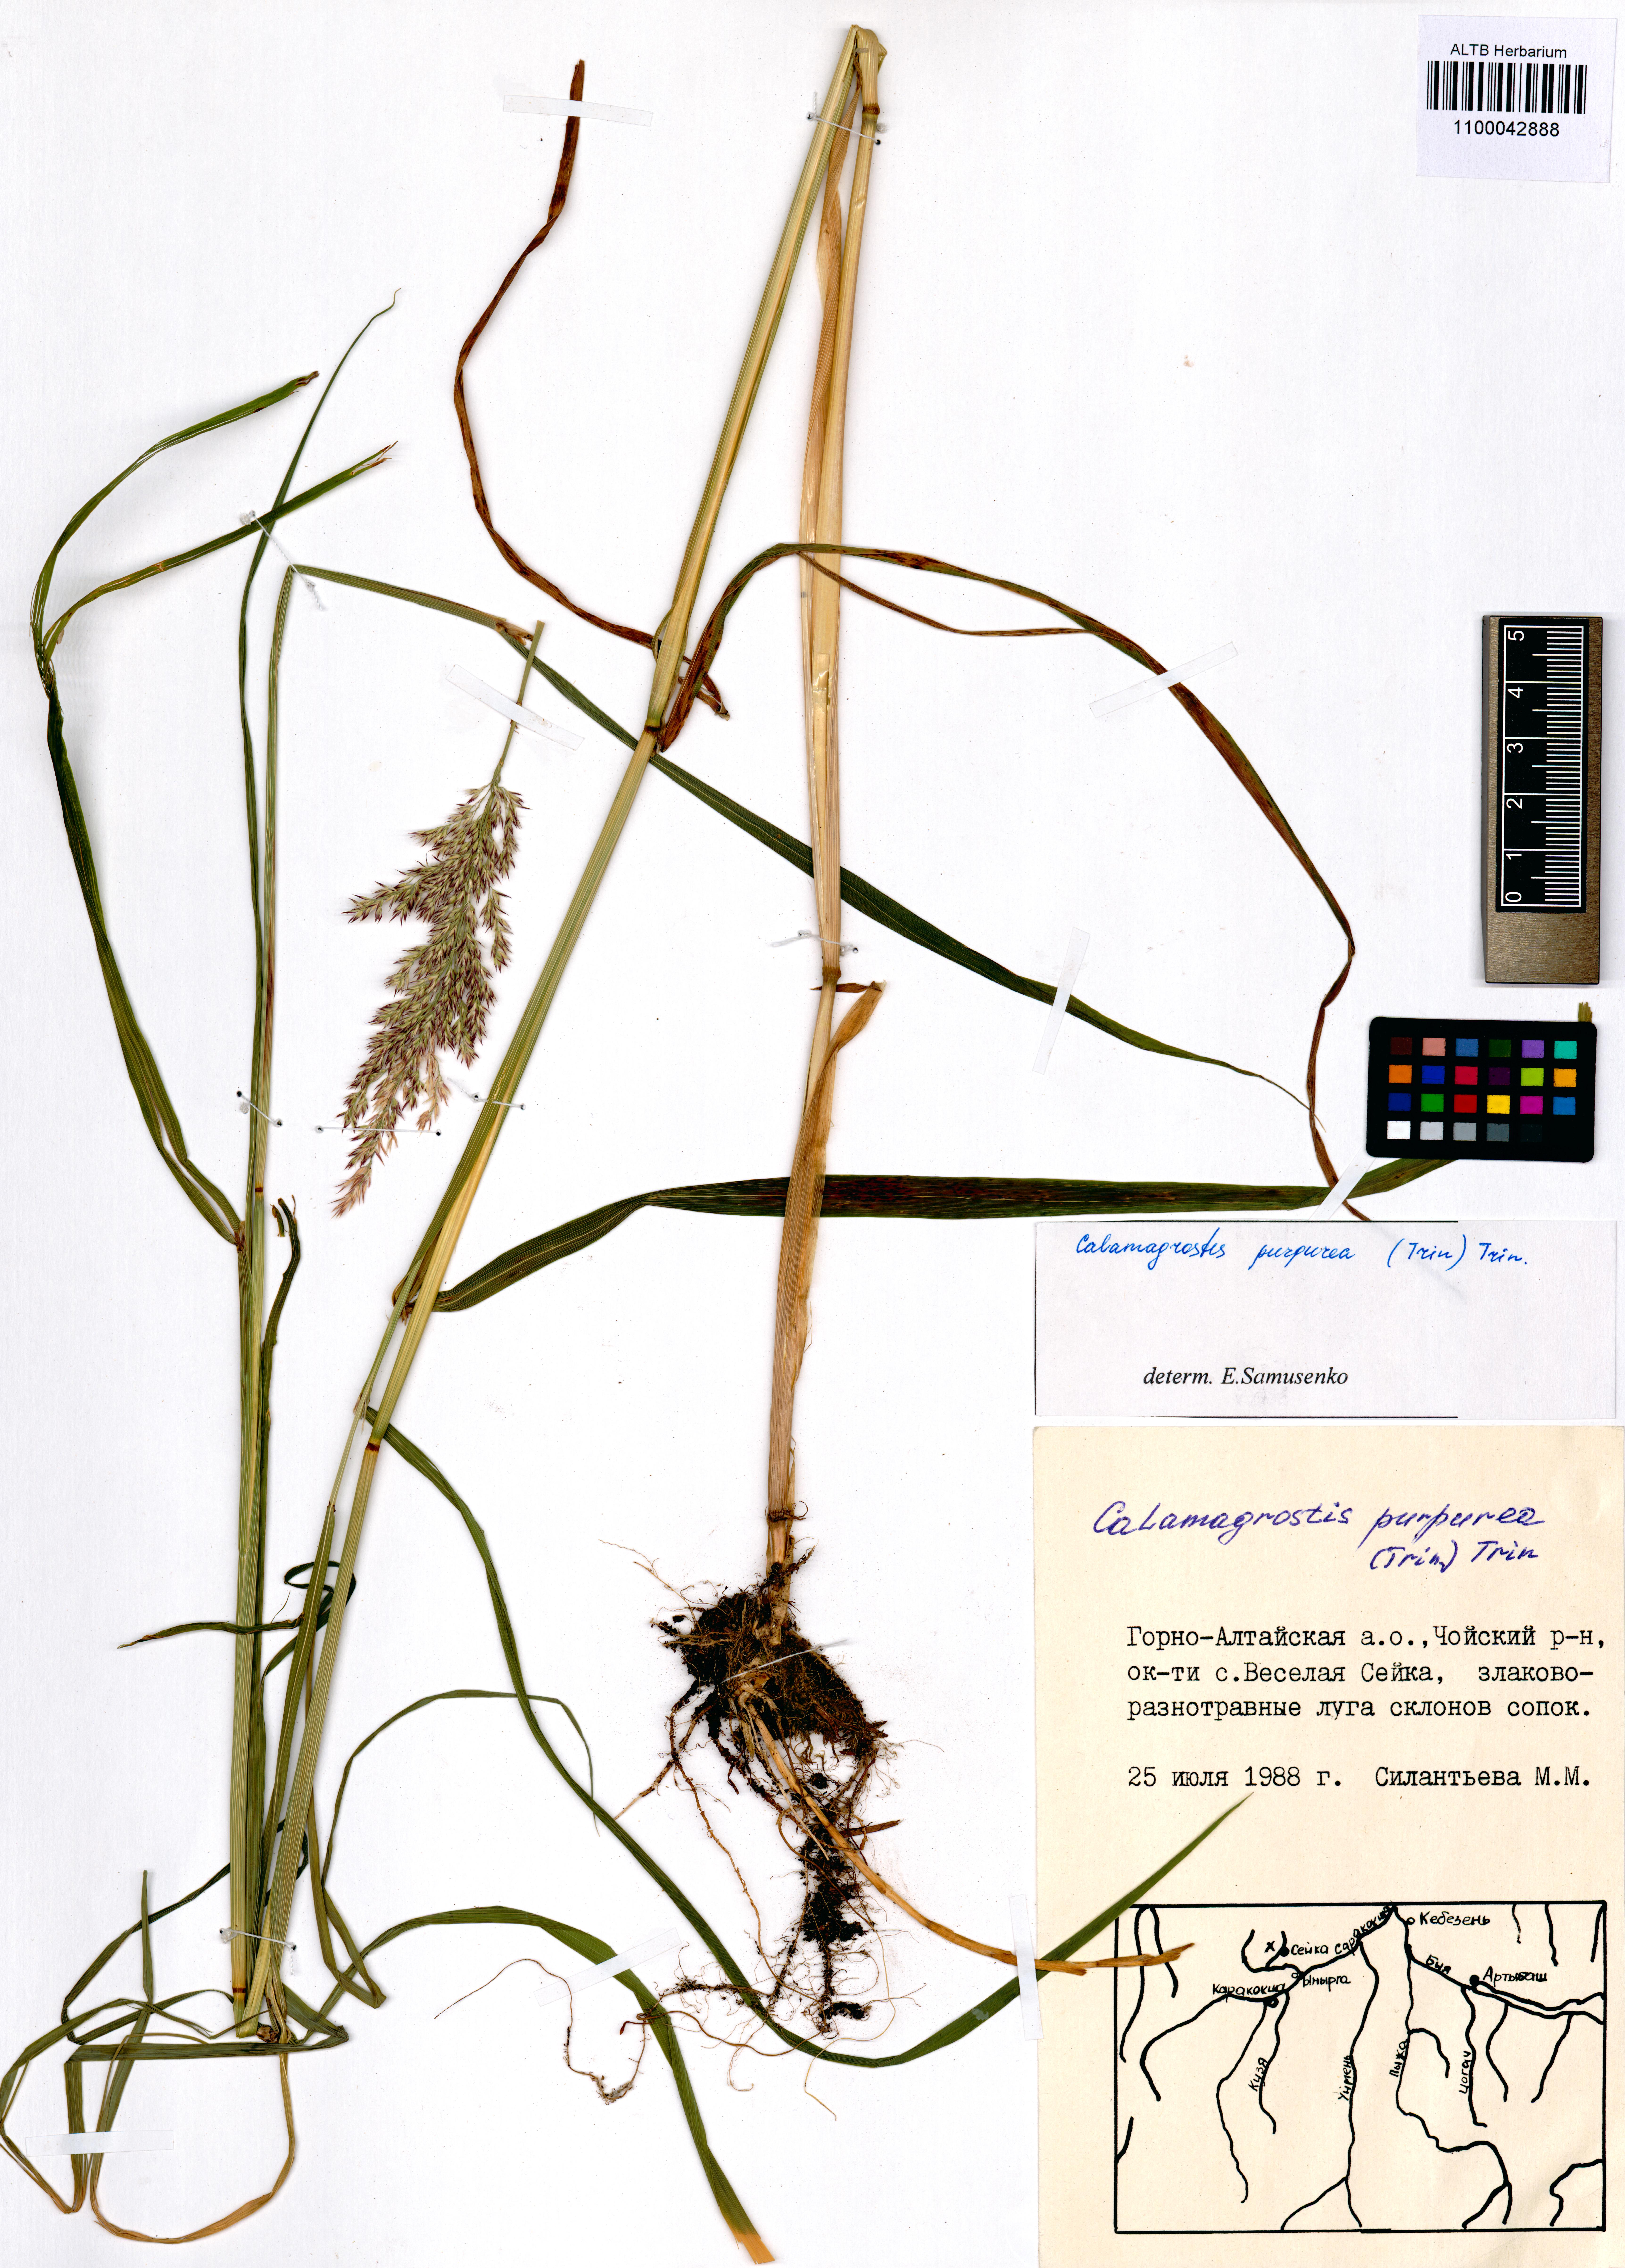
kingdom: Plantae
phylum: Tracheophyta
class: Liliopsida
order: Poales
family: Poaceae
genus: Calamagrostis
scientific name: Calamagrostis purpurea
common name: Scandinavian small-reed
